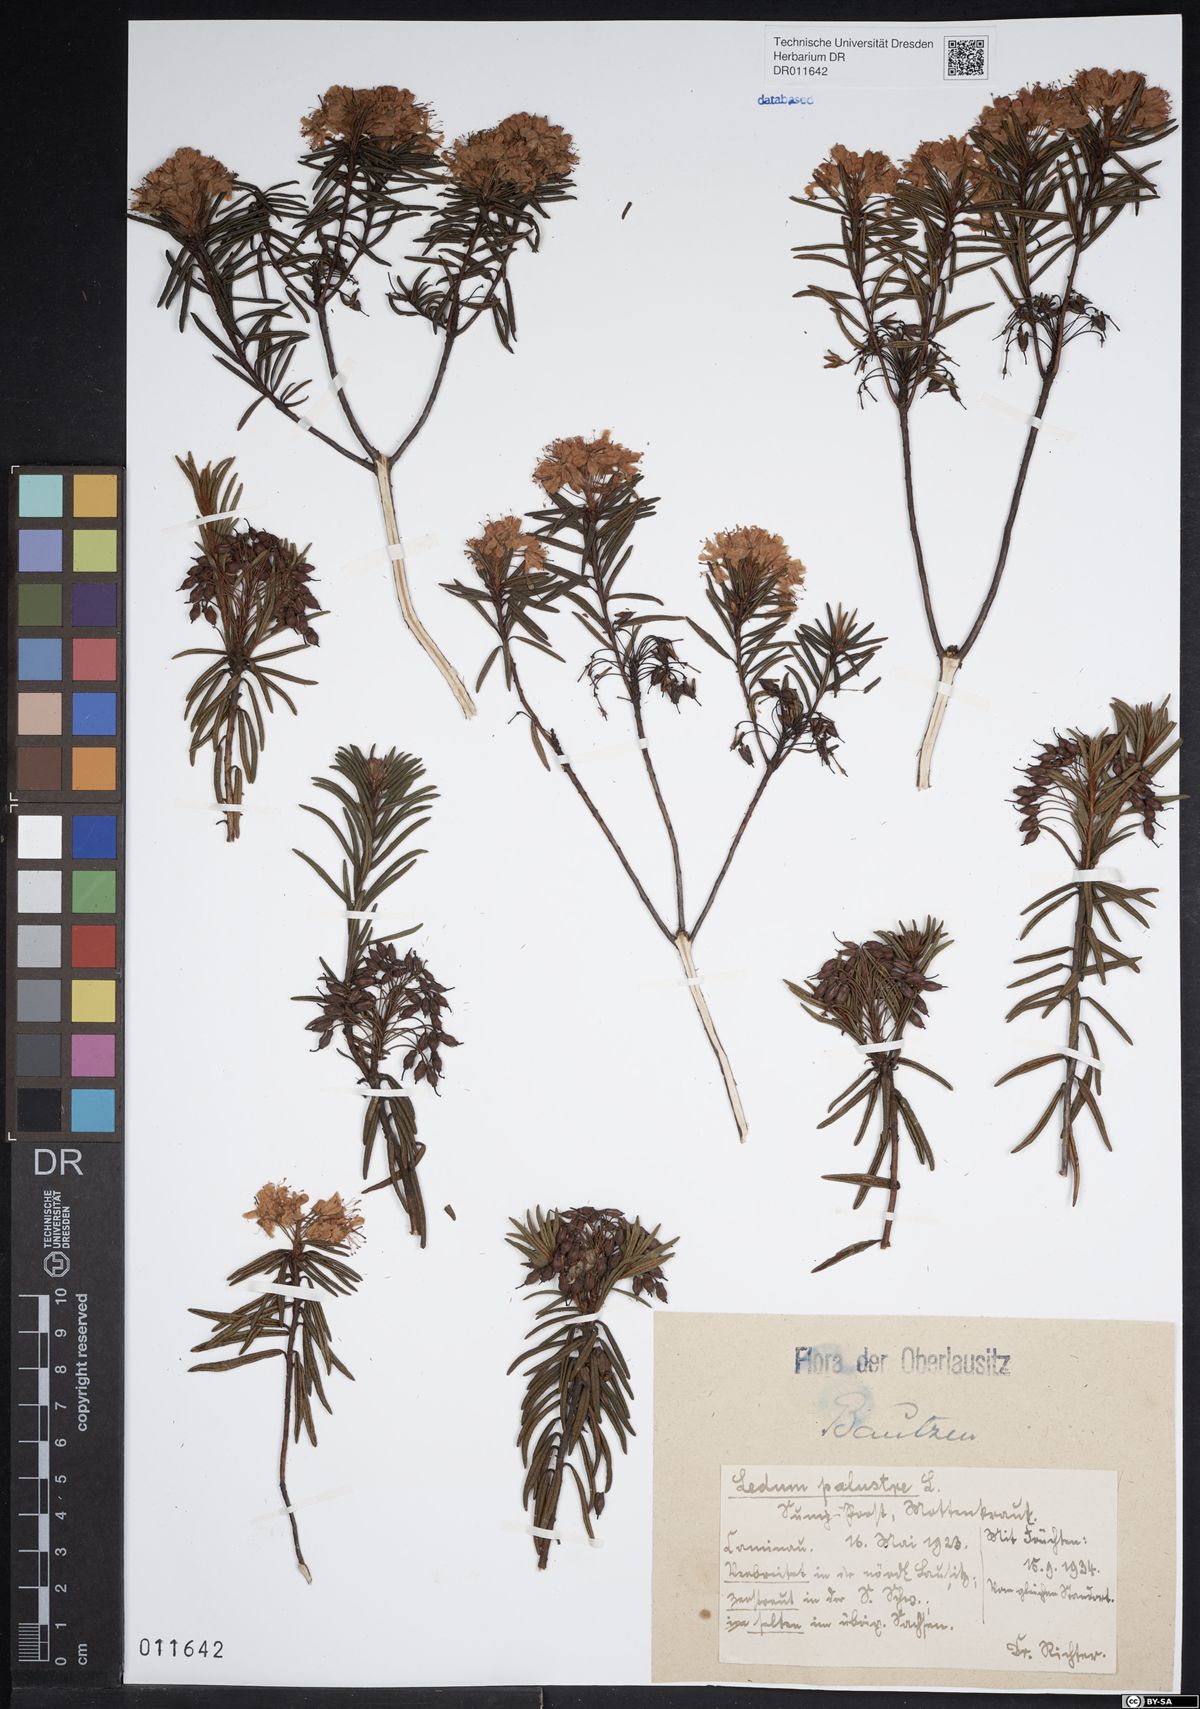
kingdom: Plantae
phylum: Tracheophyta
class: Magnoliopsida
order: Ericales
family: Ericaceae
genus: Rhododendron
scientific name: Rhododendron tomentosum
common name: Marsh labrador tea
